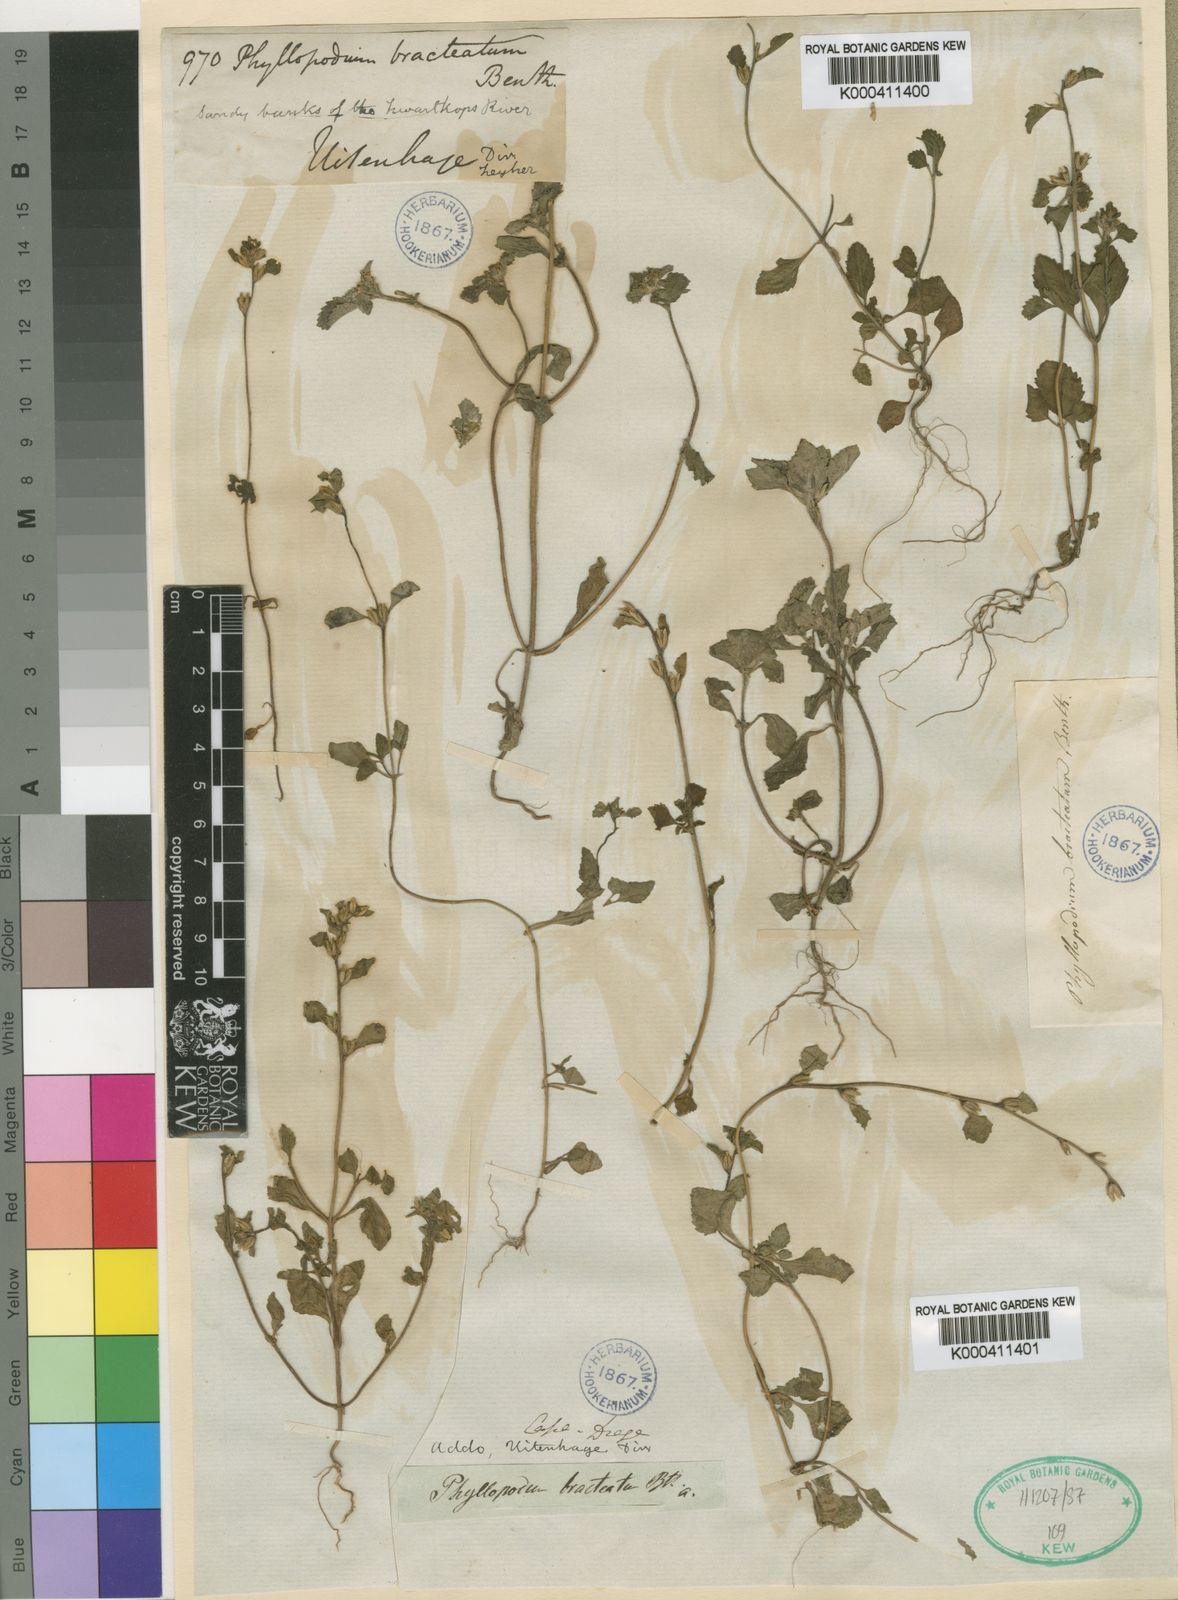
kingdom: Plantae
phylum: Tracheophyta
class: Magnoliopsida
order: Lamiales
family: Scrophulariaceae
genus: Phyllopodium
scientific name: Phyllopodium bracteatum
